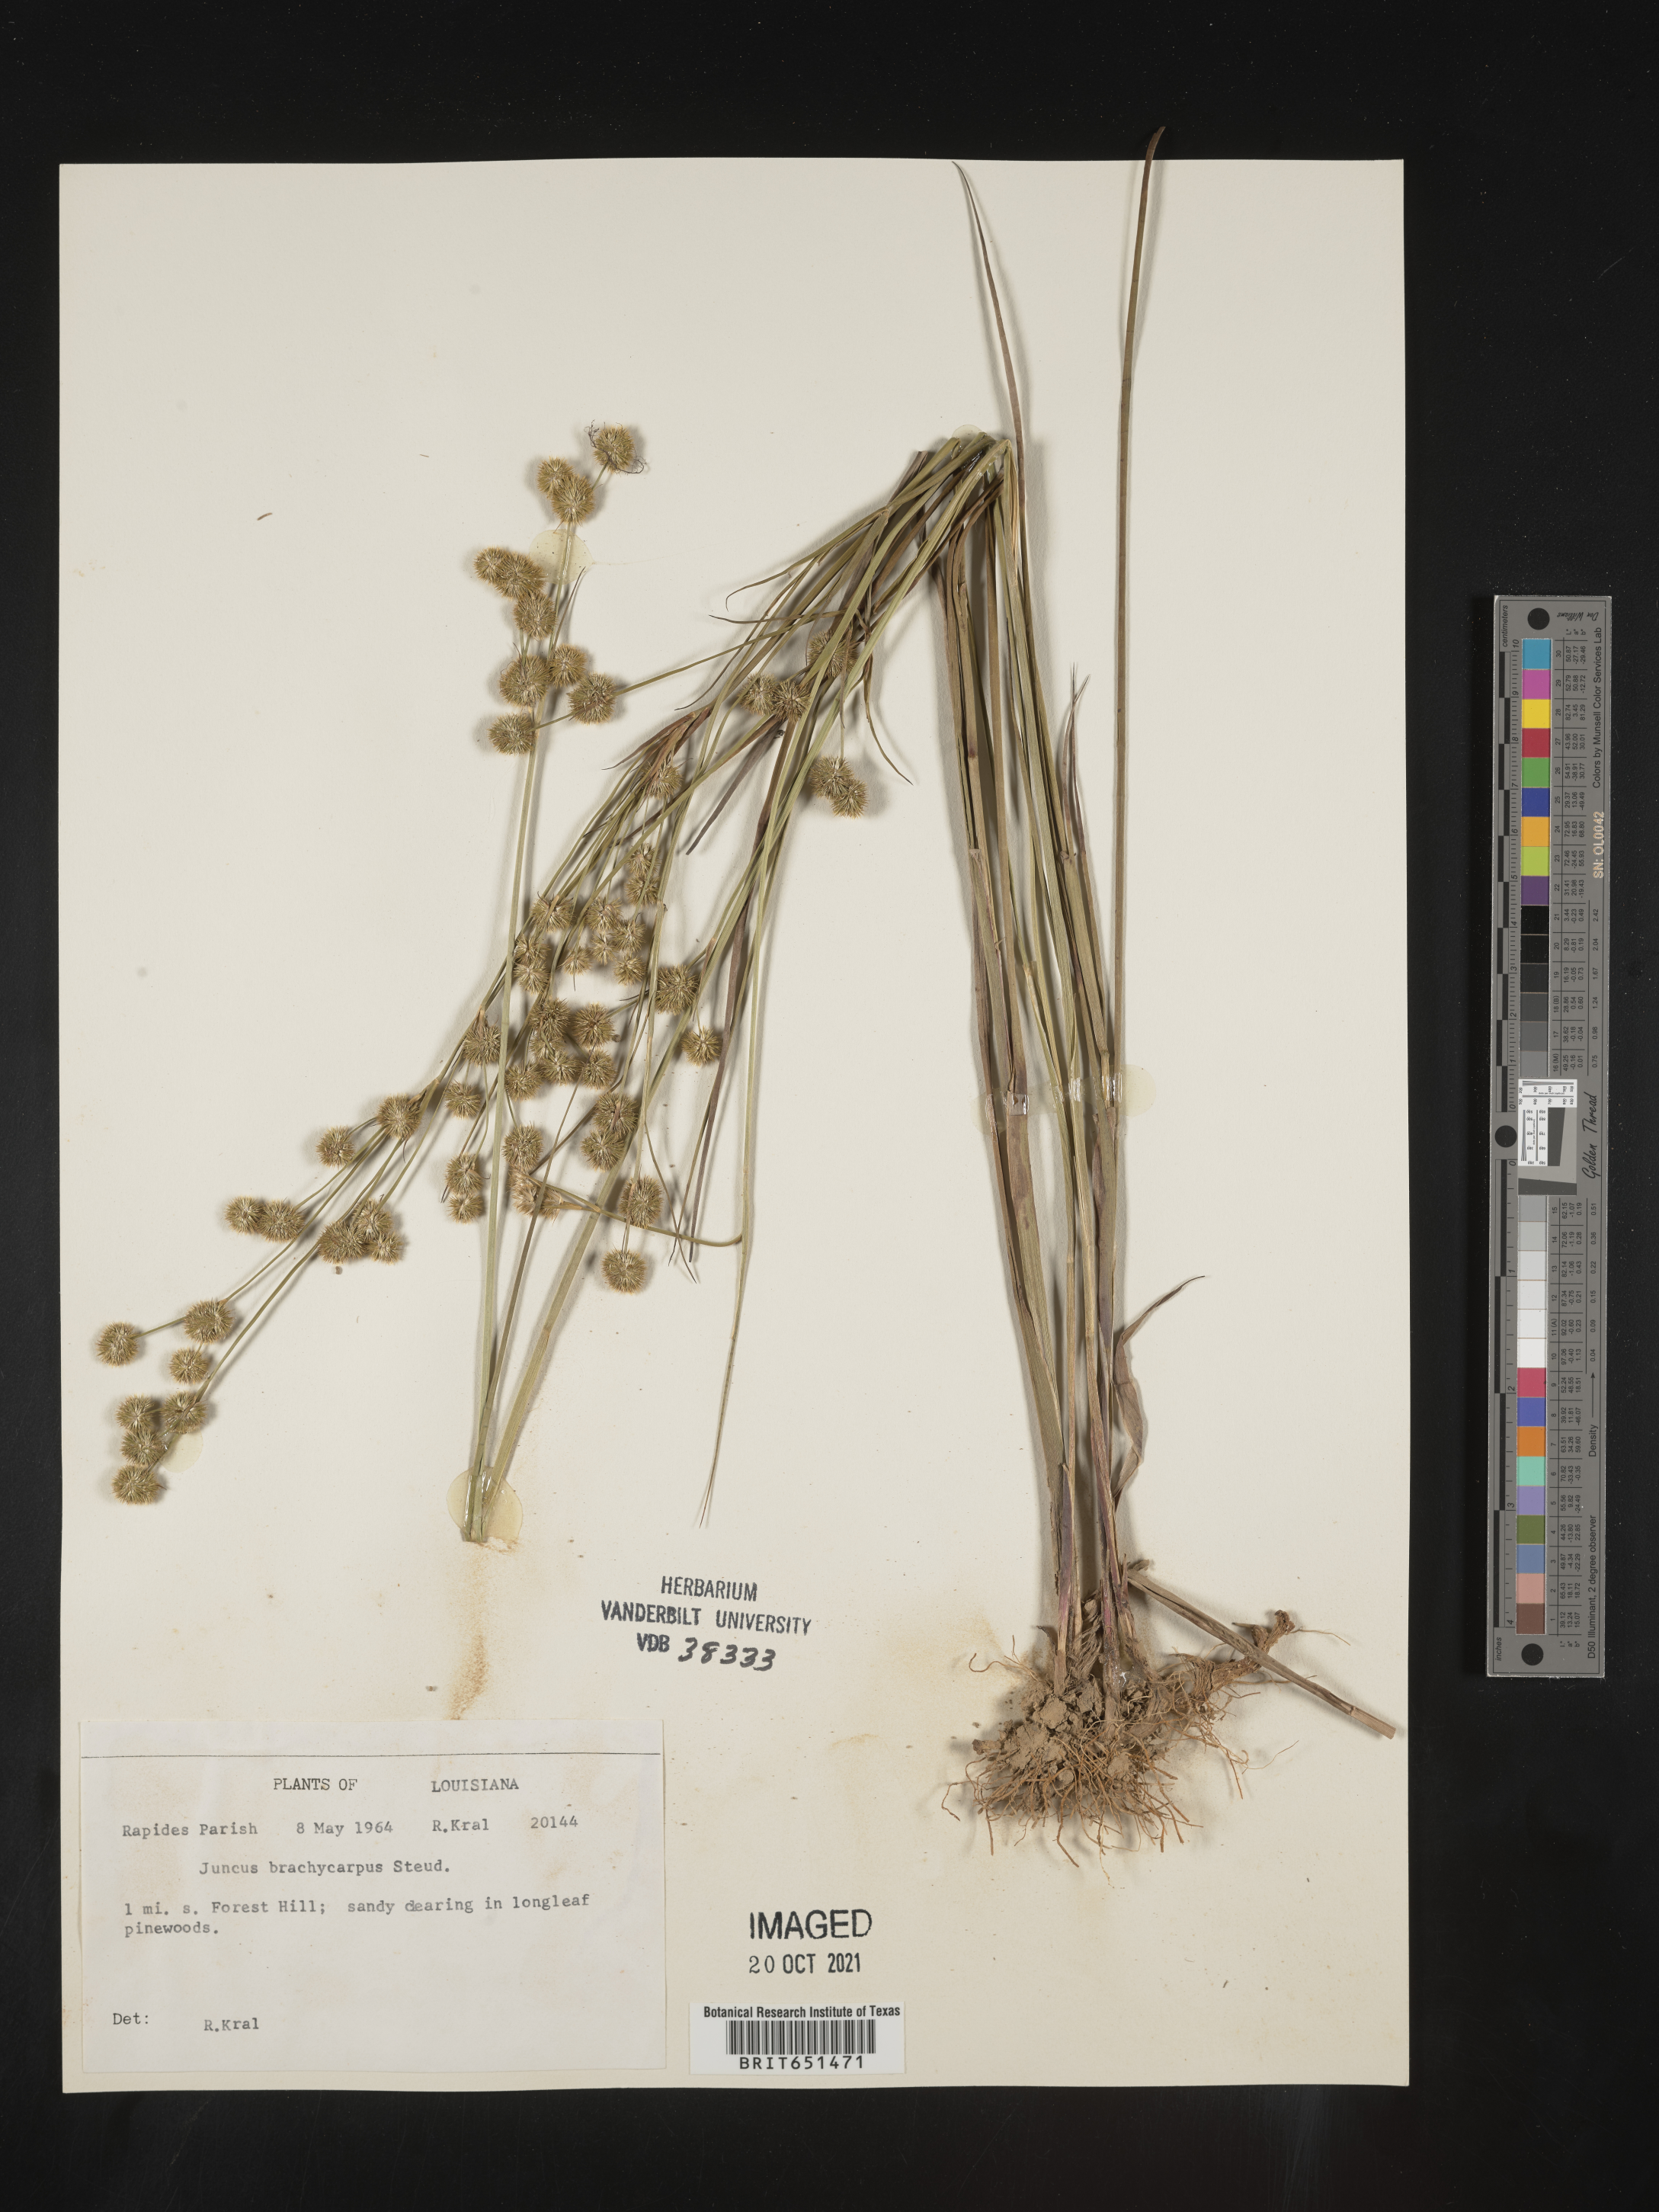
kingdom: Plantae
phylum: Tracheophyta
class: Liliopsida
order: Poales
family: Juncaceae
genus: Juncus
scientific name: Juncus brachycarpus
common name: Shore rush
